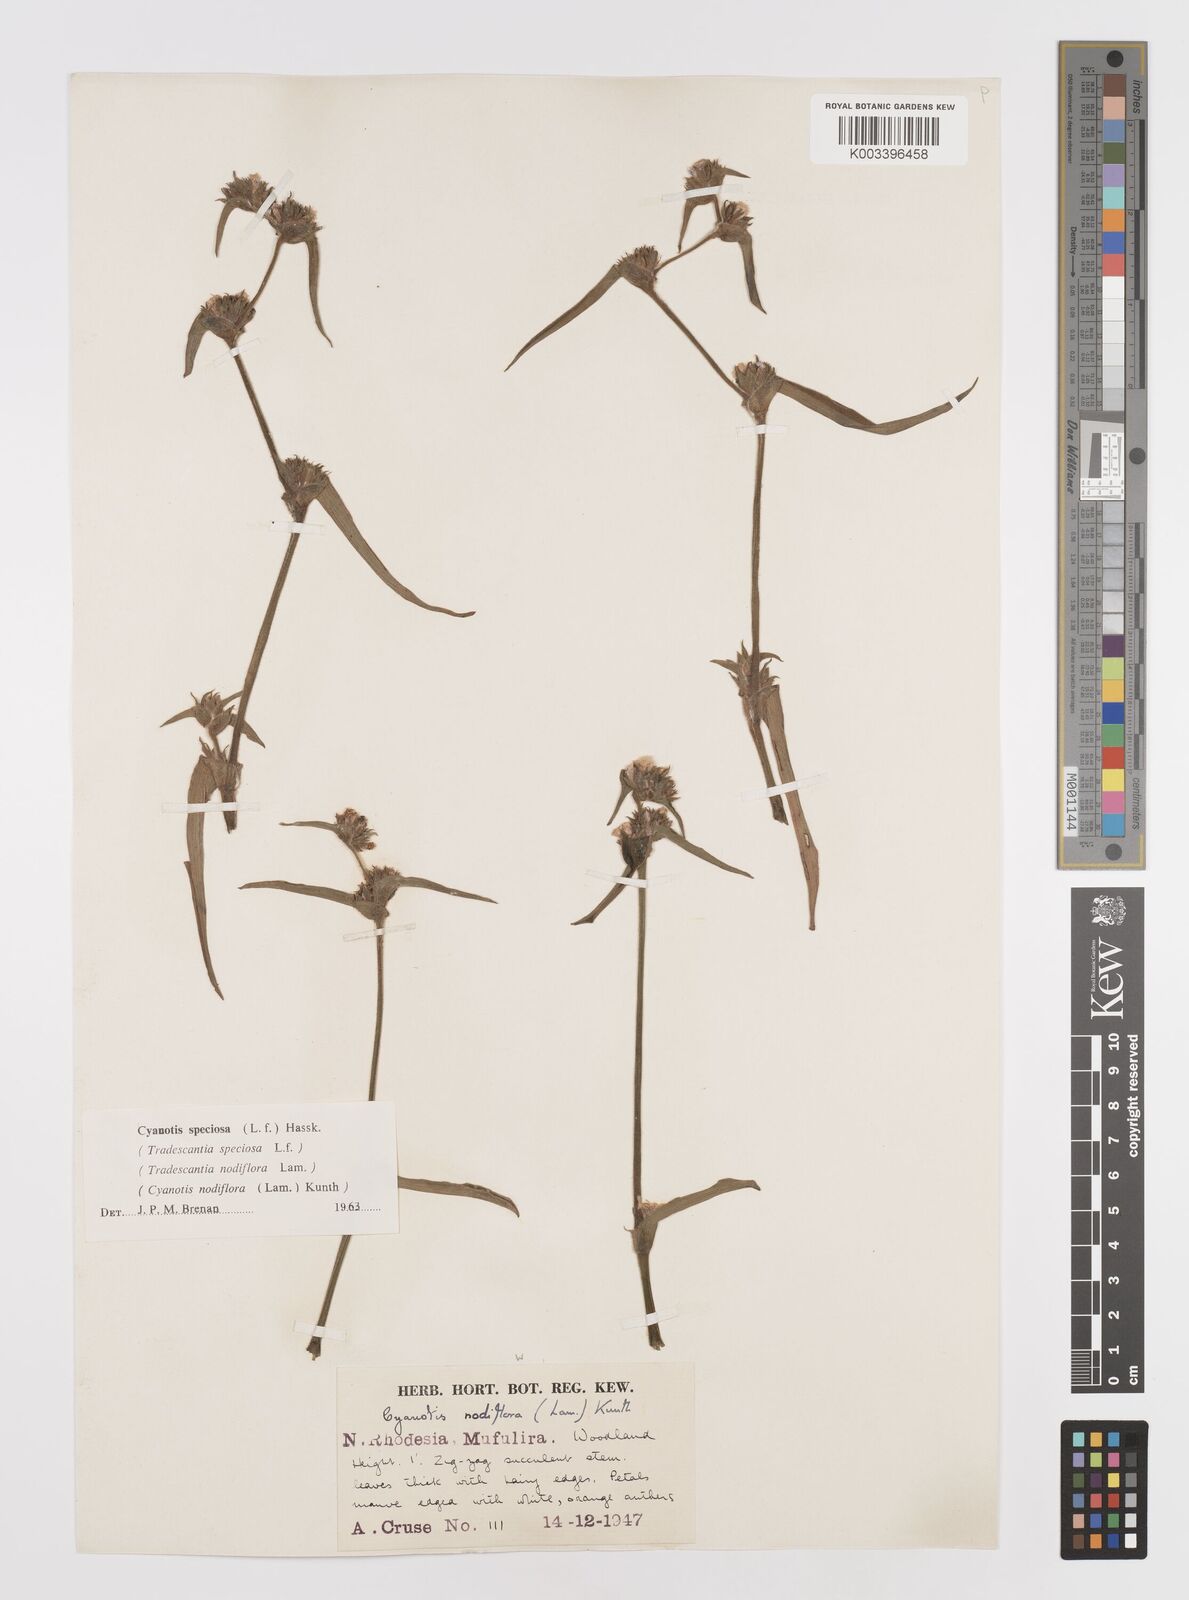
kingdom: Plantae
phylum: Tracheophyta
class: Liliopsida
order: Commelinales
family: Commelinaceae
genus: Cyanotis
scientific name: Cyanotis speciosa
